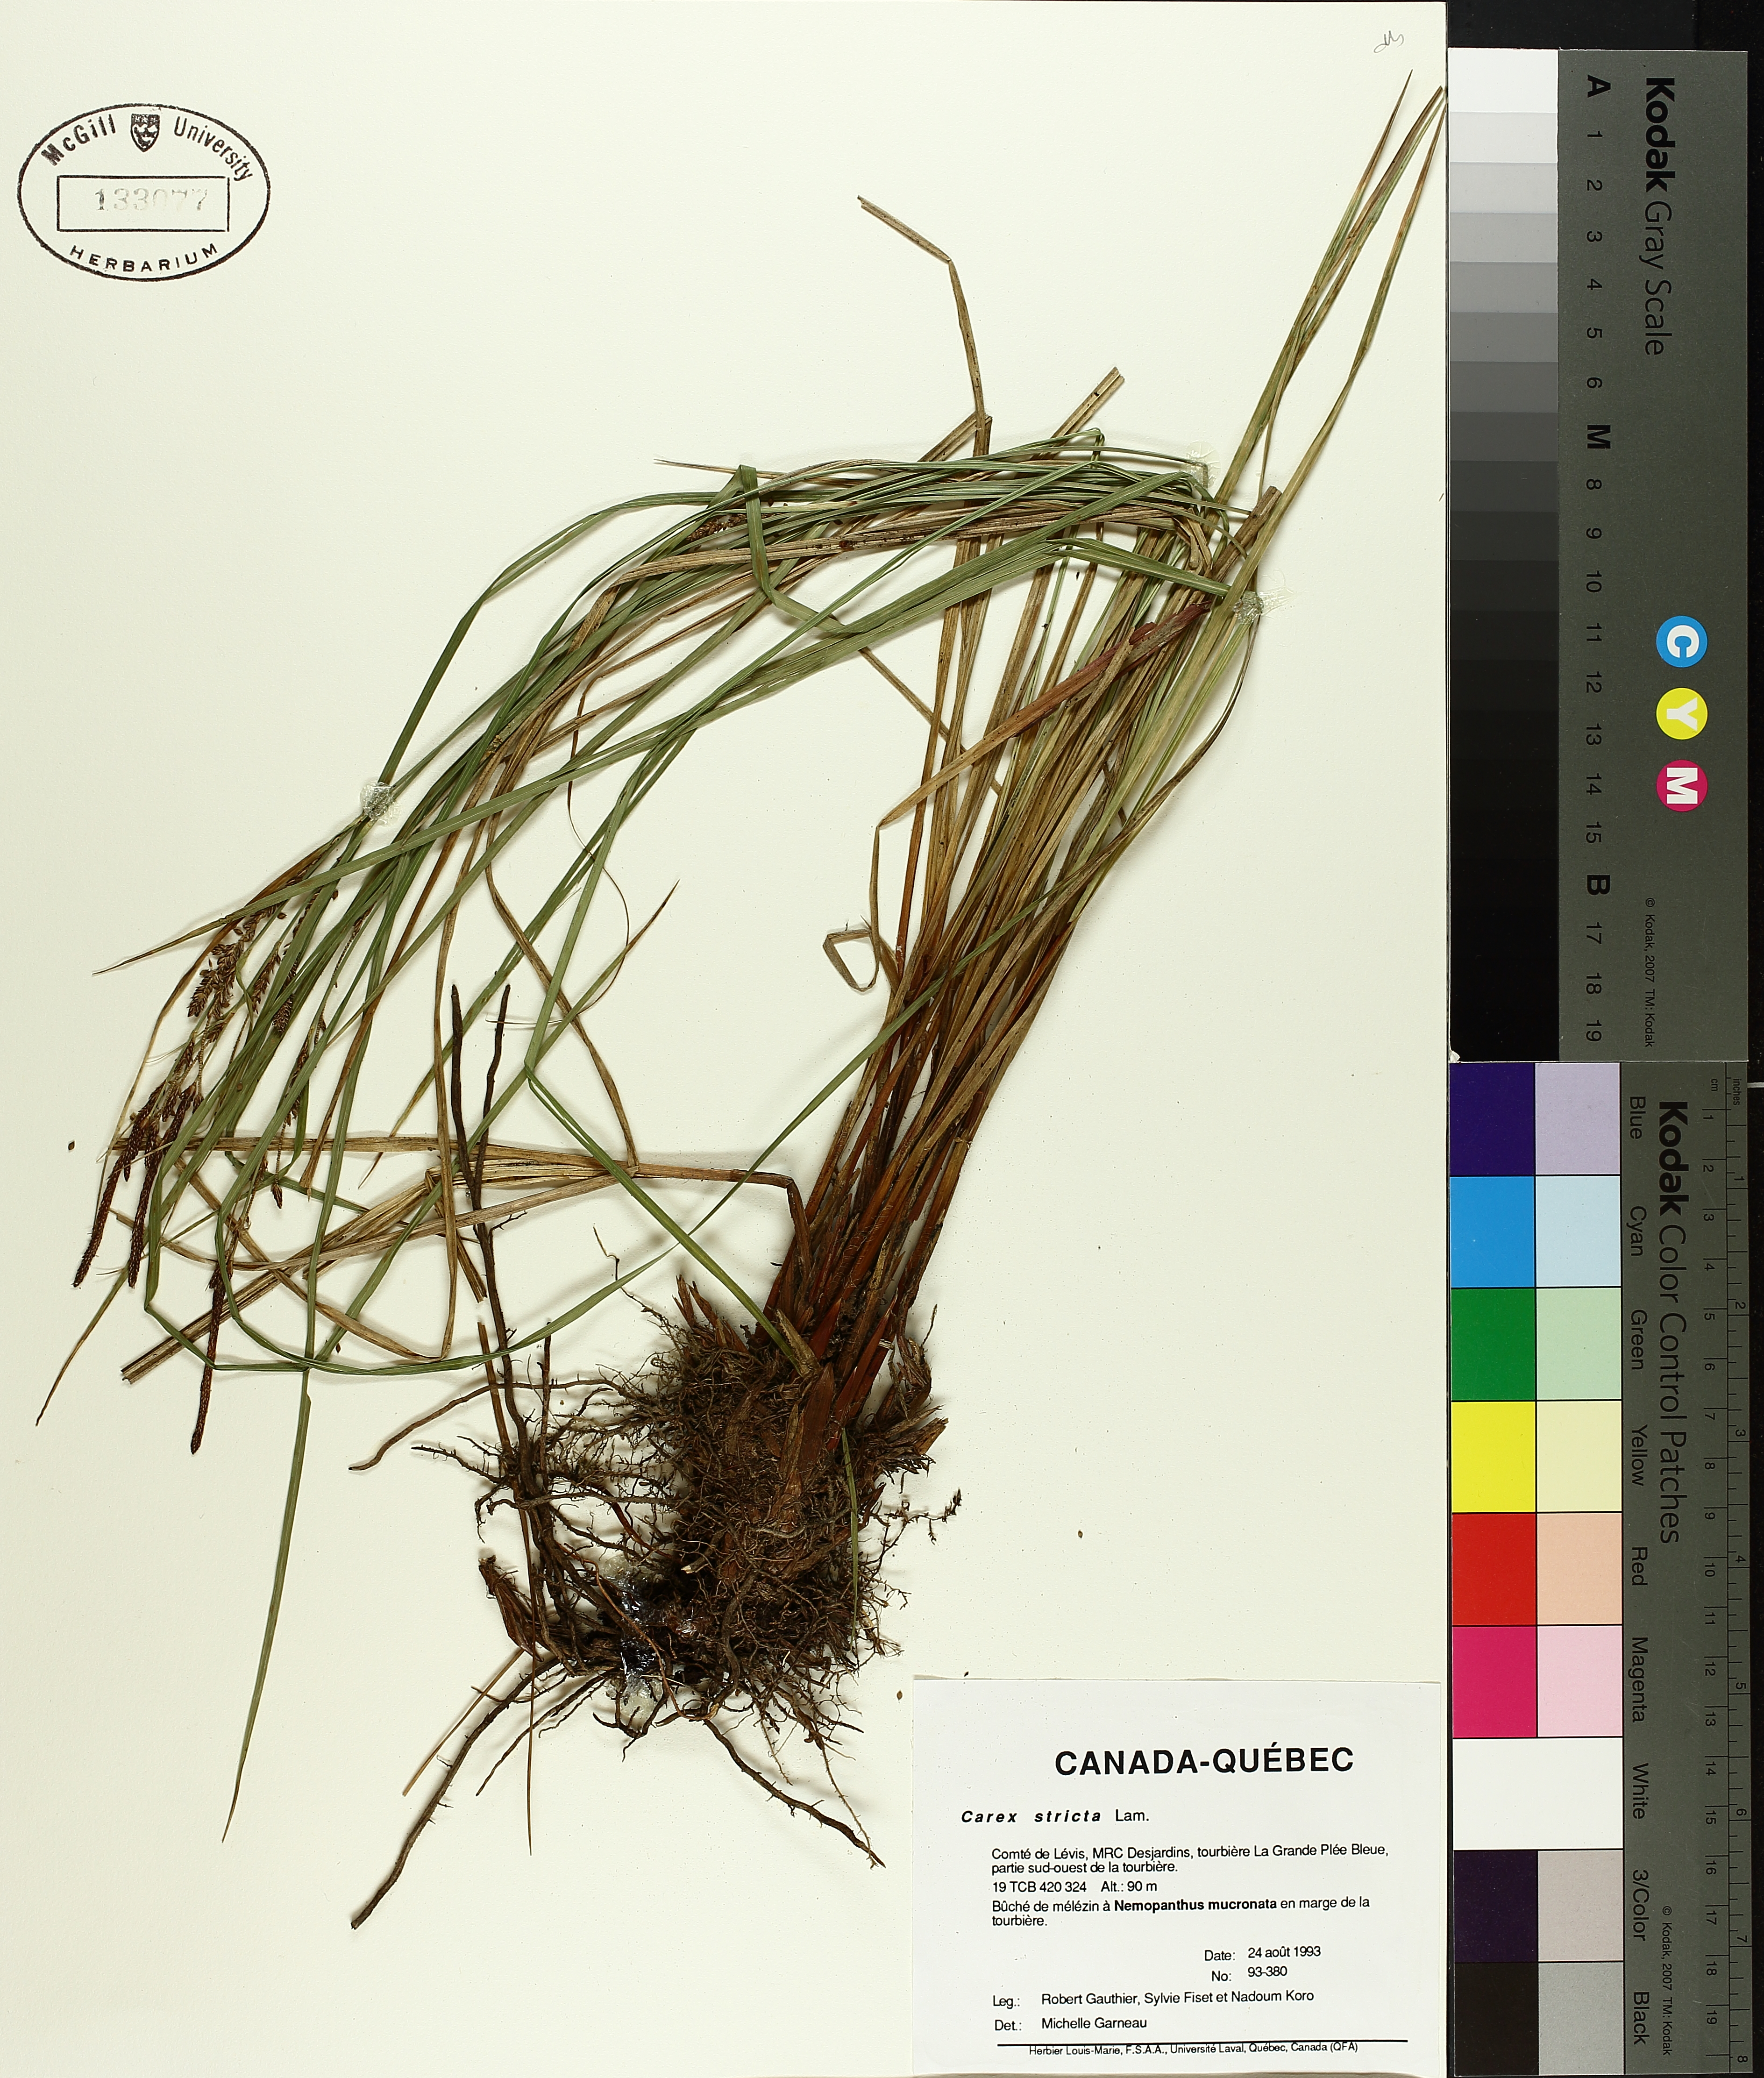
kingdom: Plantae
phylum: Tracheophyta
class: Liliopsida
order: Poales
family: Cyperaceae
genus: Carex
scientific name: Carex stricta
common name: Hummock sedge
